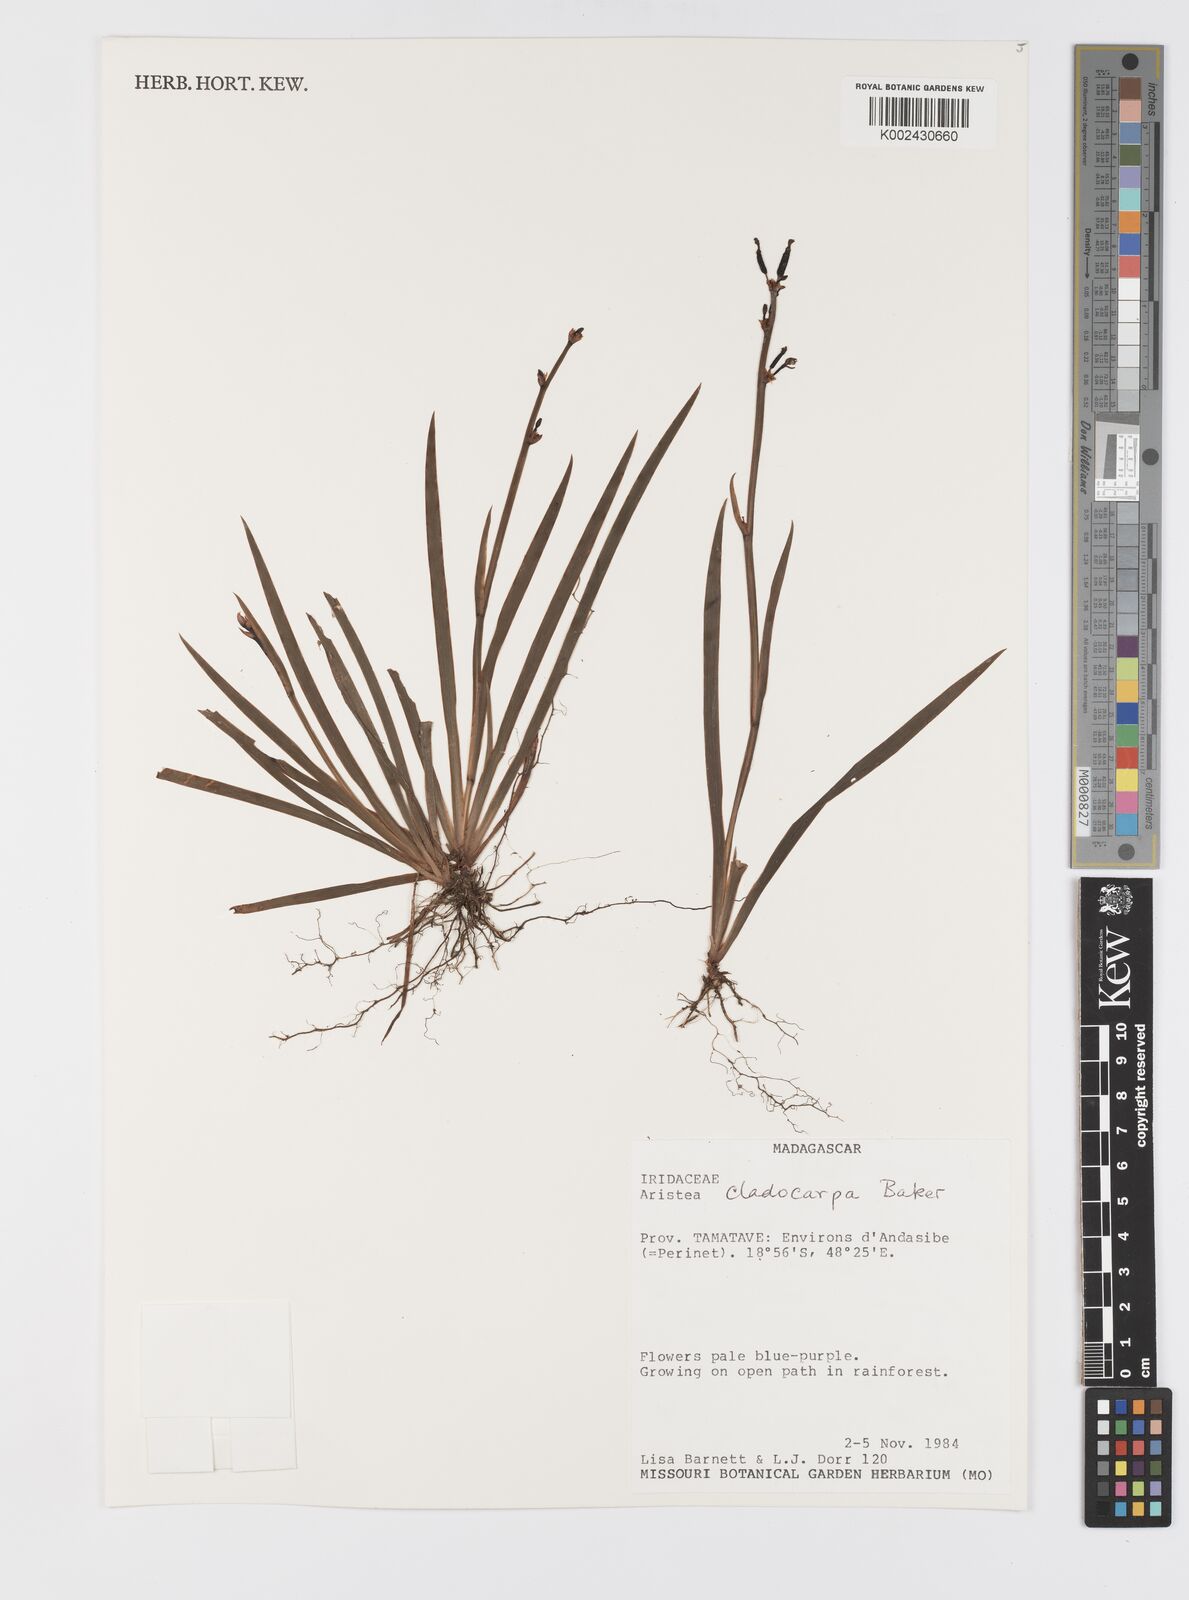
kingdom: Plantae
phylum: Tracheophyta
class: Liliopsida
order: Asparagales
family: Iridaceae
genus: Aristea
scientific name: Aristea cladocarpa
